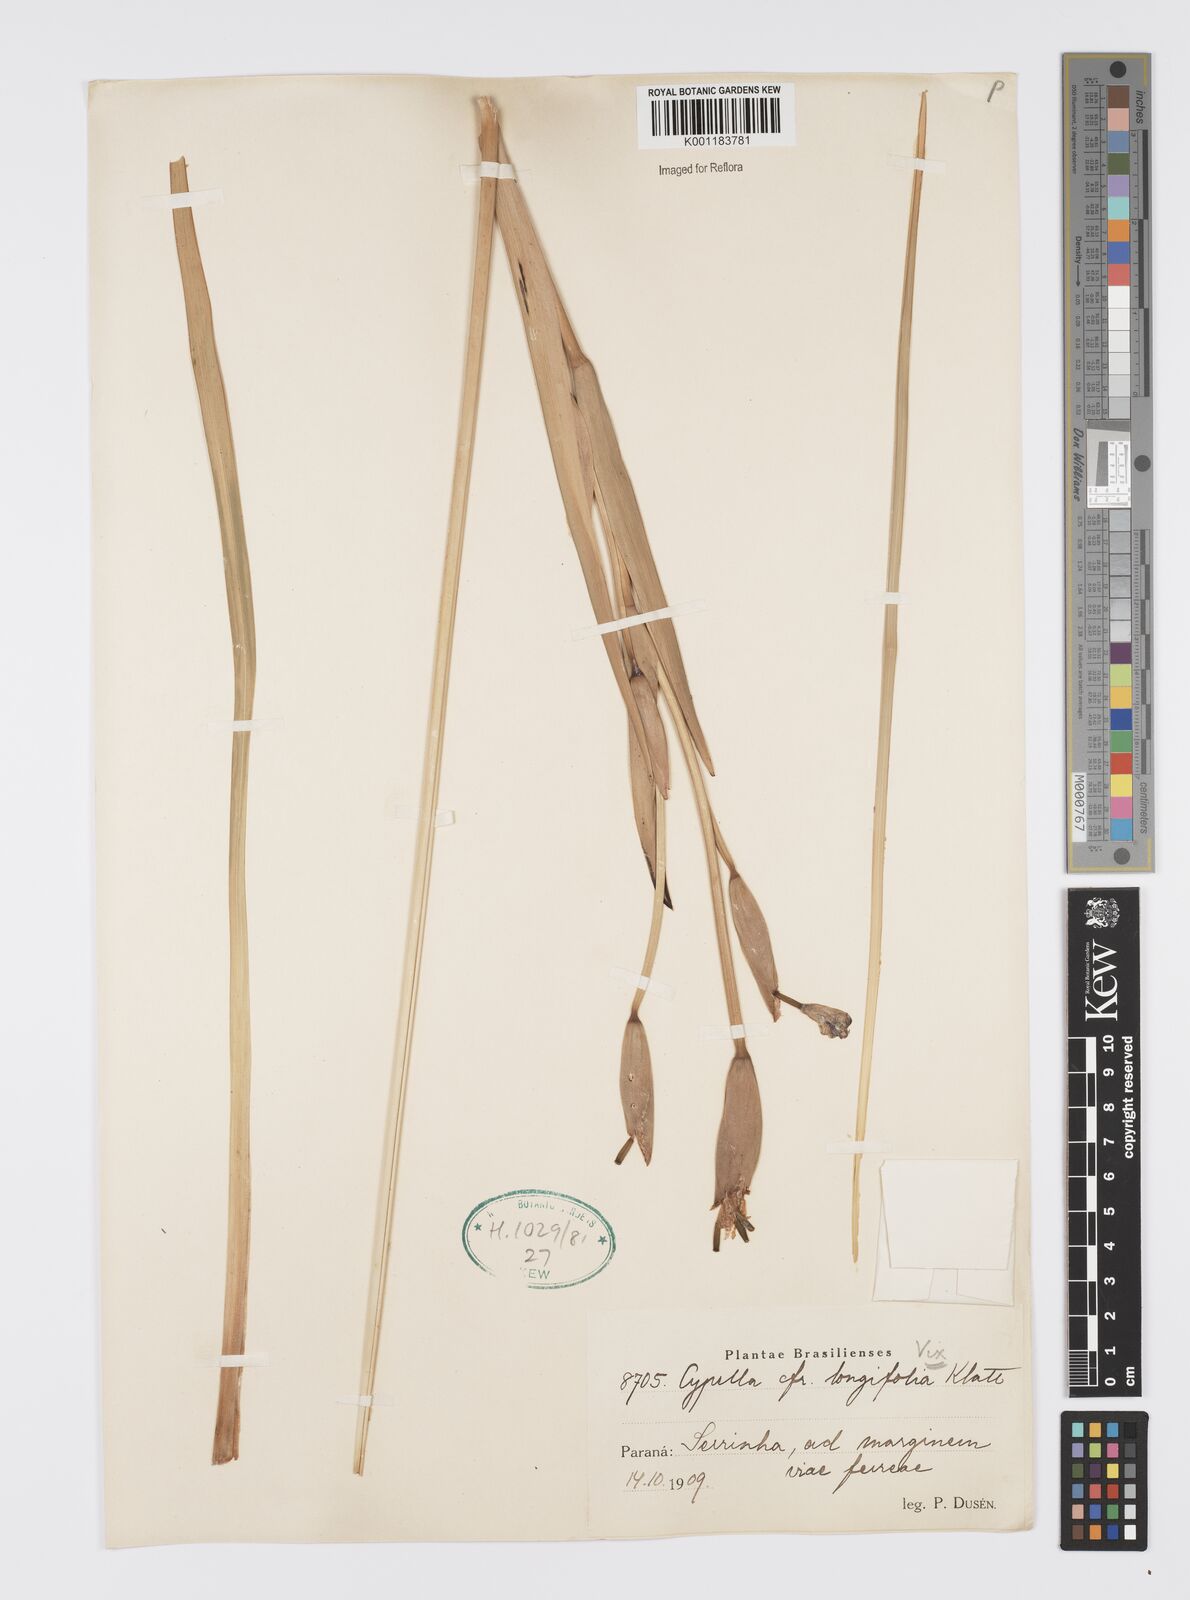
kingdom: Plantae
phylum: Tracheophyta
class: Liliopsida
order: Asparagales
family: Iridaceae
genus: Trimezia
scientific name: Trimezia longifolia
